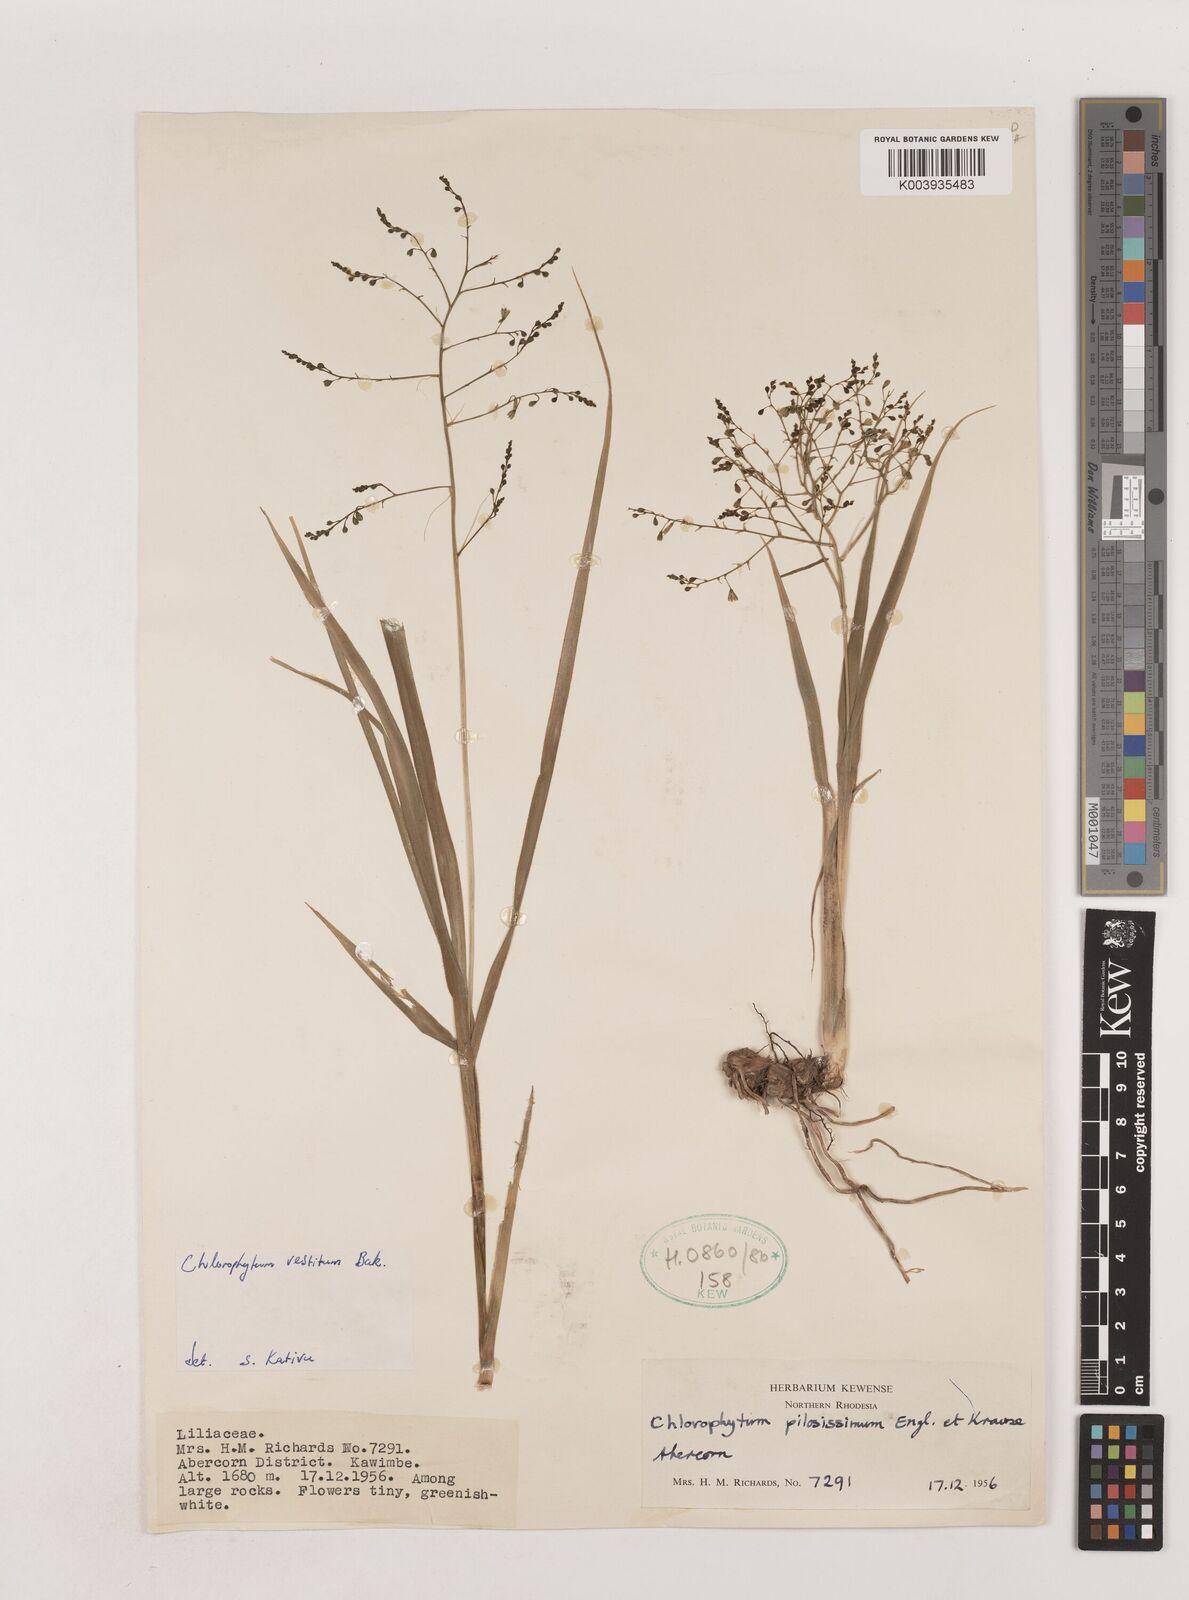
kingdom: Plantae
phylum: Tracheophyta
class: Liliopsida
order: Asparagales
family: Asparagaceae
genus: Chlorophytum
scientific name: Chlorophytum vestitum
